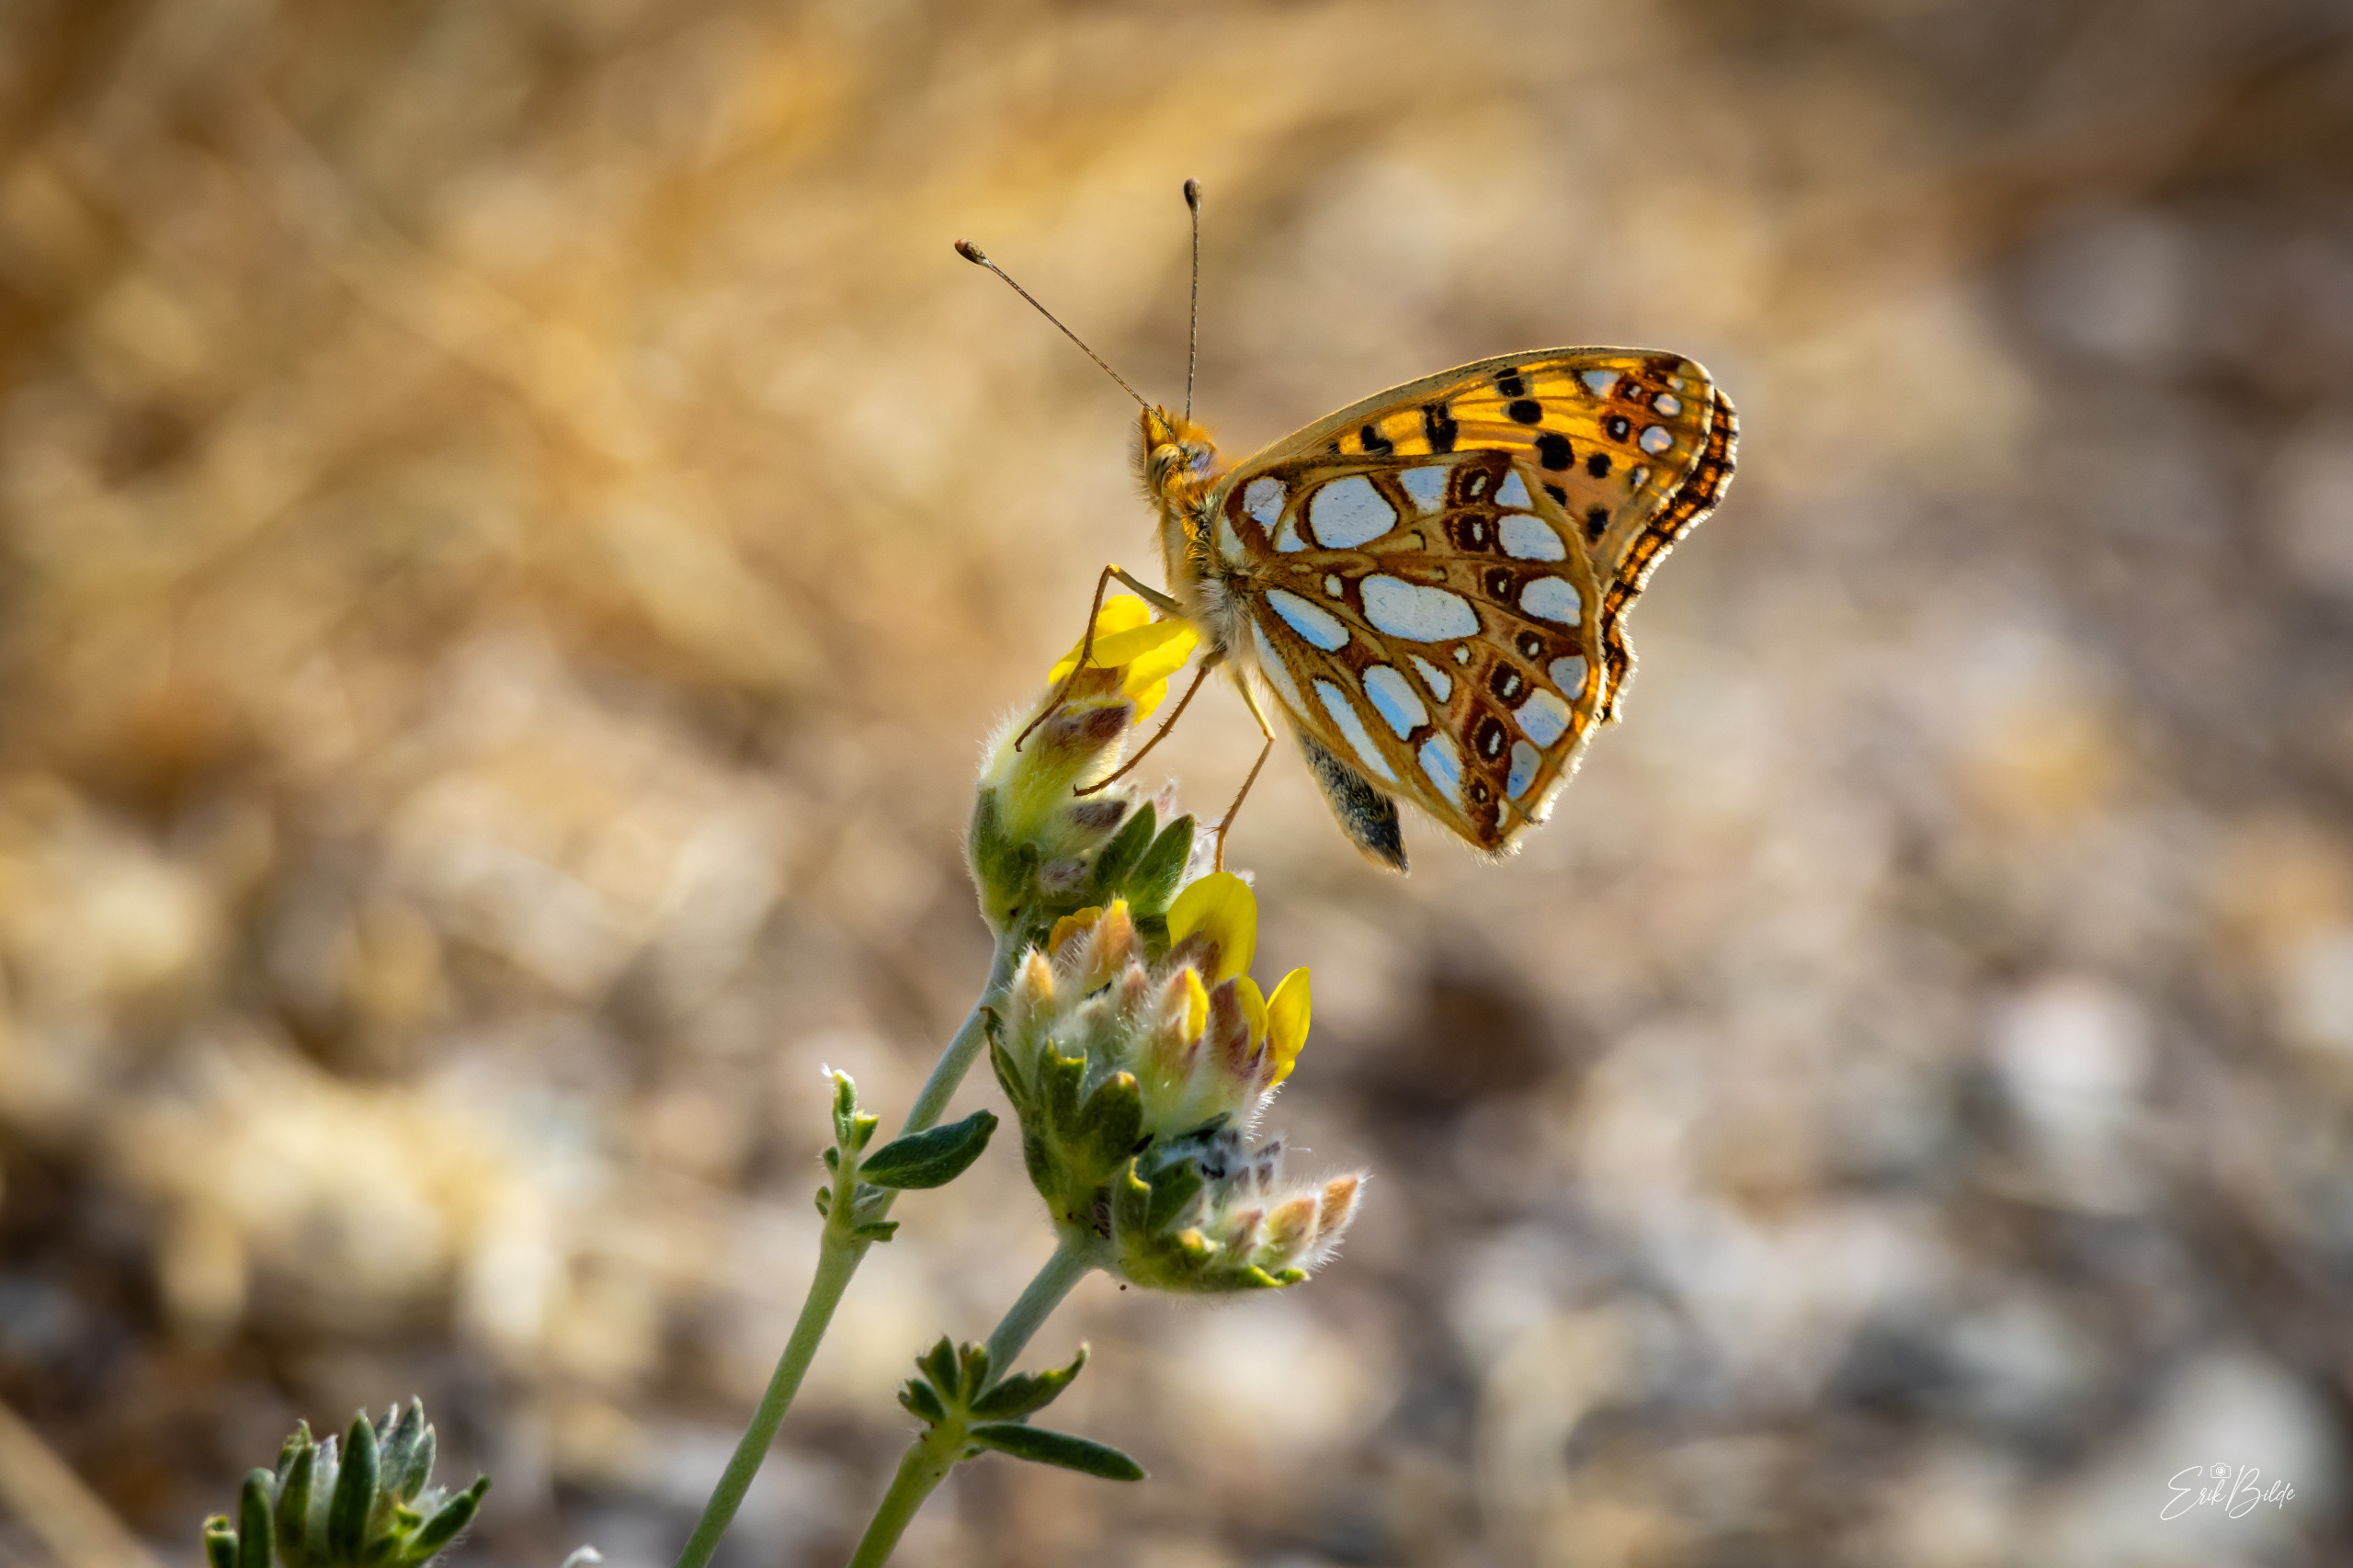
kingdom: Animalia
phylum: Arthropoda
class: Insecta
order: Lepidoptera
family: Nymphalidae
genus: Issoria
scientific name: Issoria lathonia
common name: Storplettet perlemorsommerfugl
